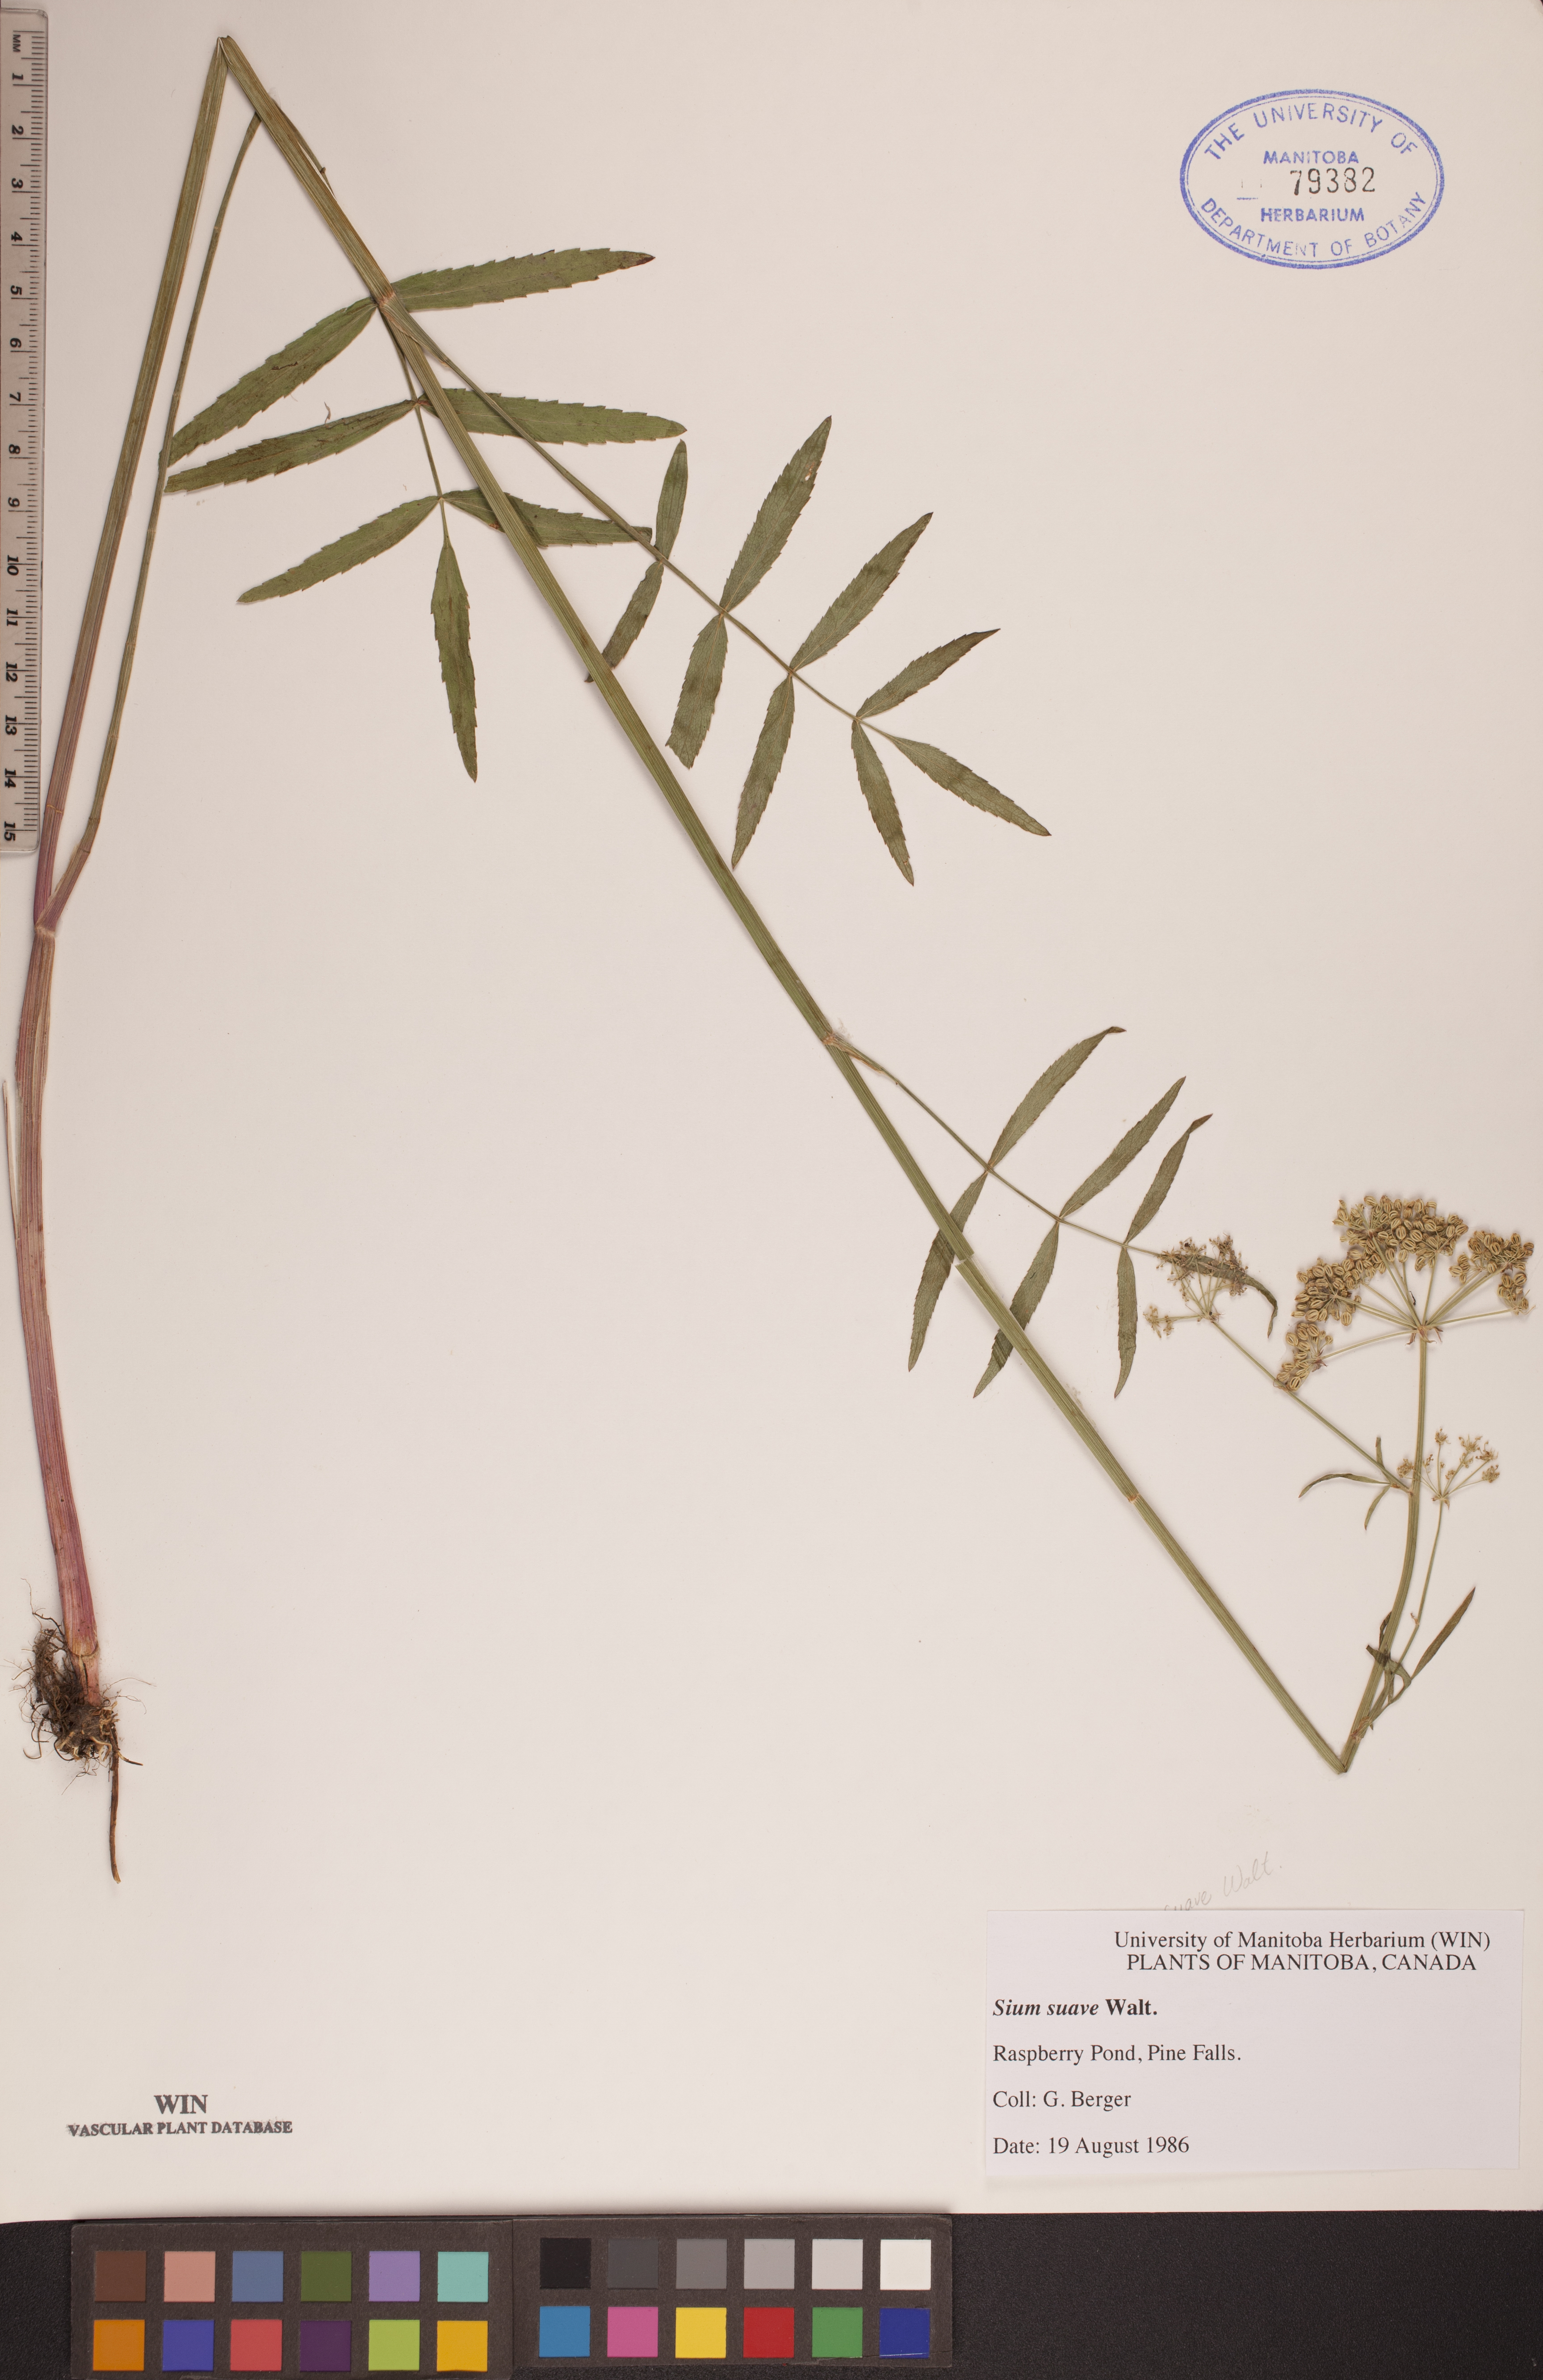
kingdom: Plantae
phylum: Tracheophyta
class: Magnoliopsida
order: Apiales
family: Apiaceae
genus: Sium
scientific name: Sium suave
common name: Hemlock water-parsnip
